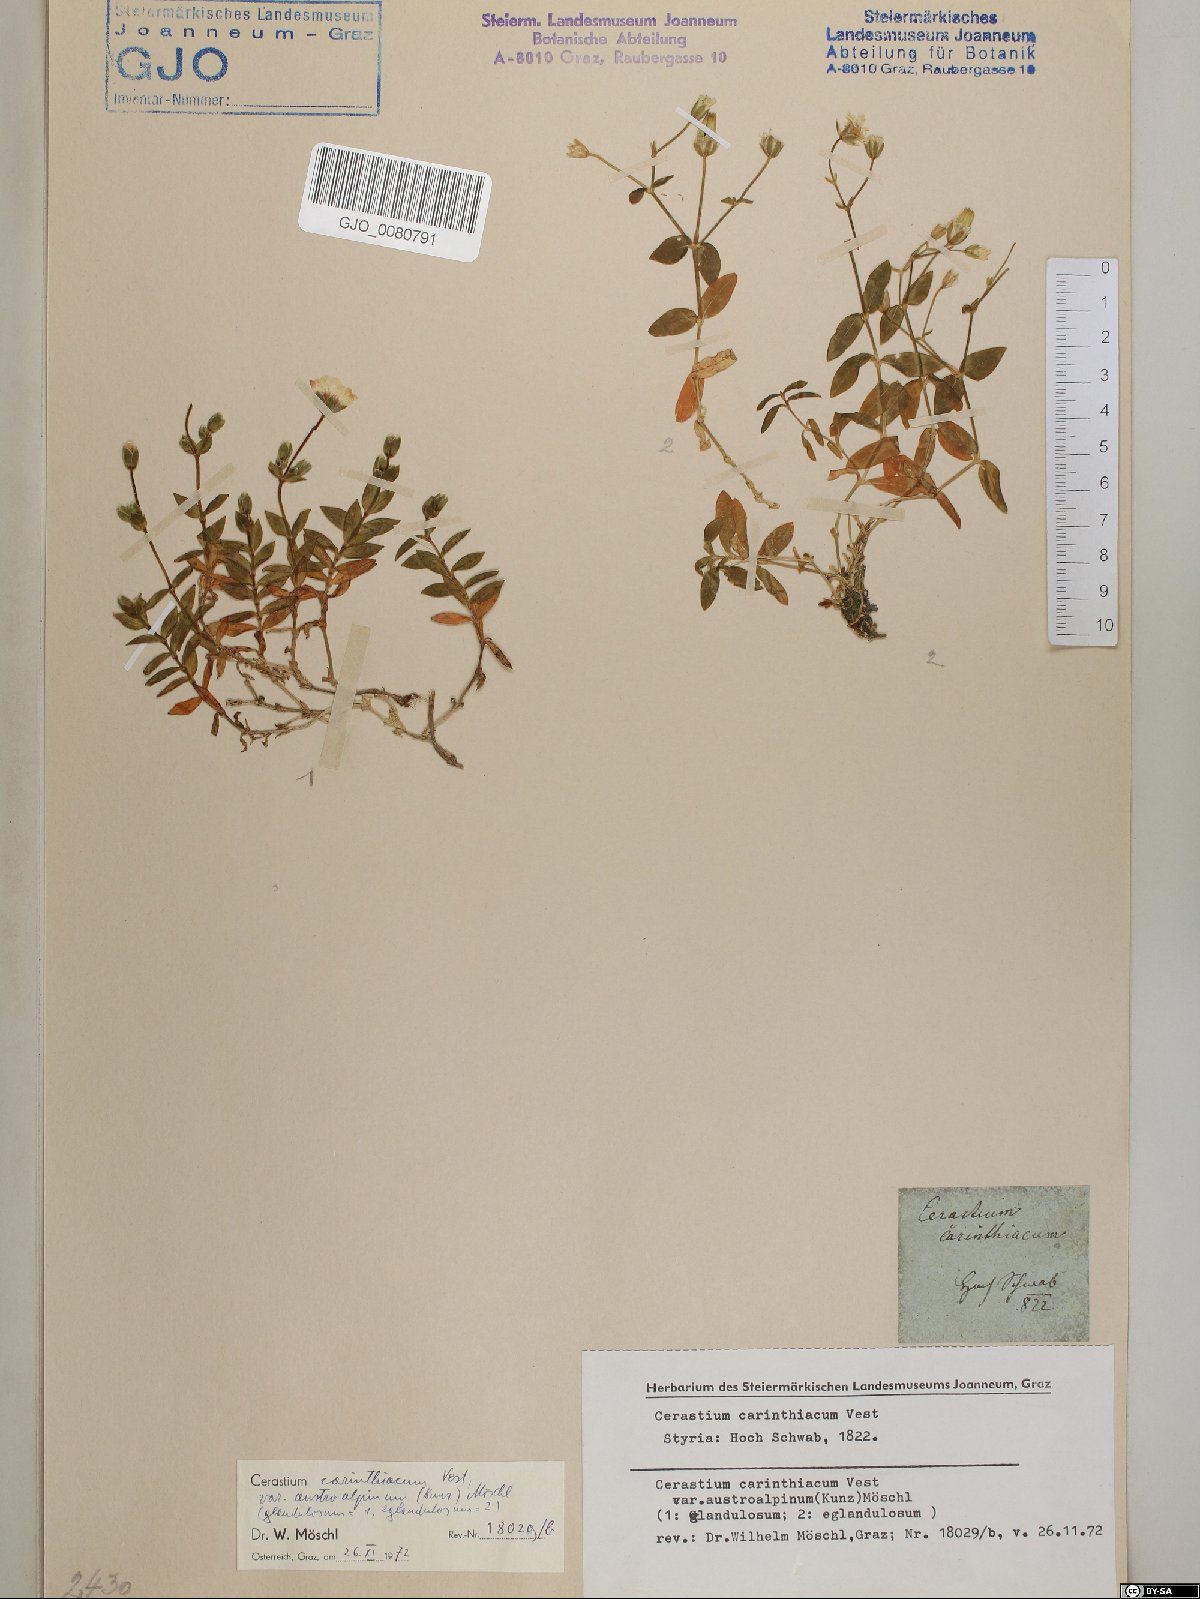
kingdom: Plantae
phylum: Tracheophyta
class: Magnoliopsida
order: Caryophyllales
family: Caryophyllaceae
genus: Cerastium
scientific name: Cerastium carinthiacum
